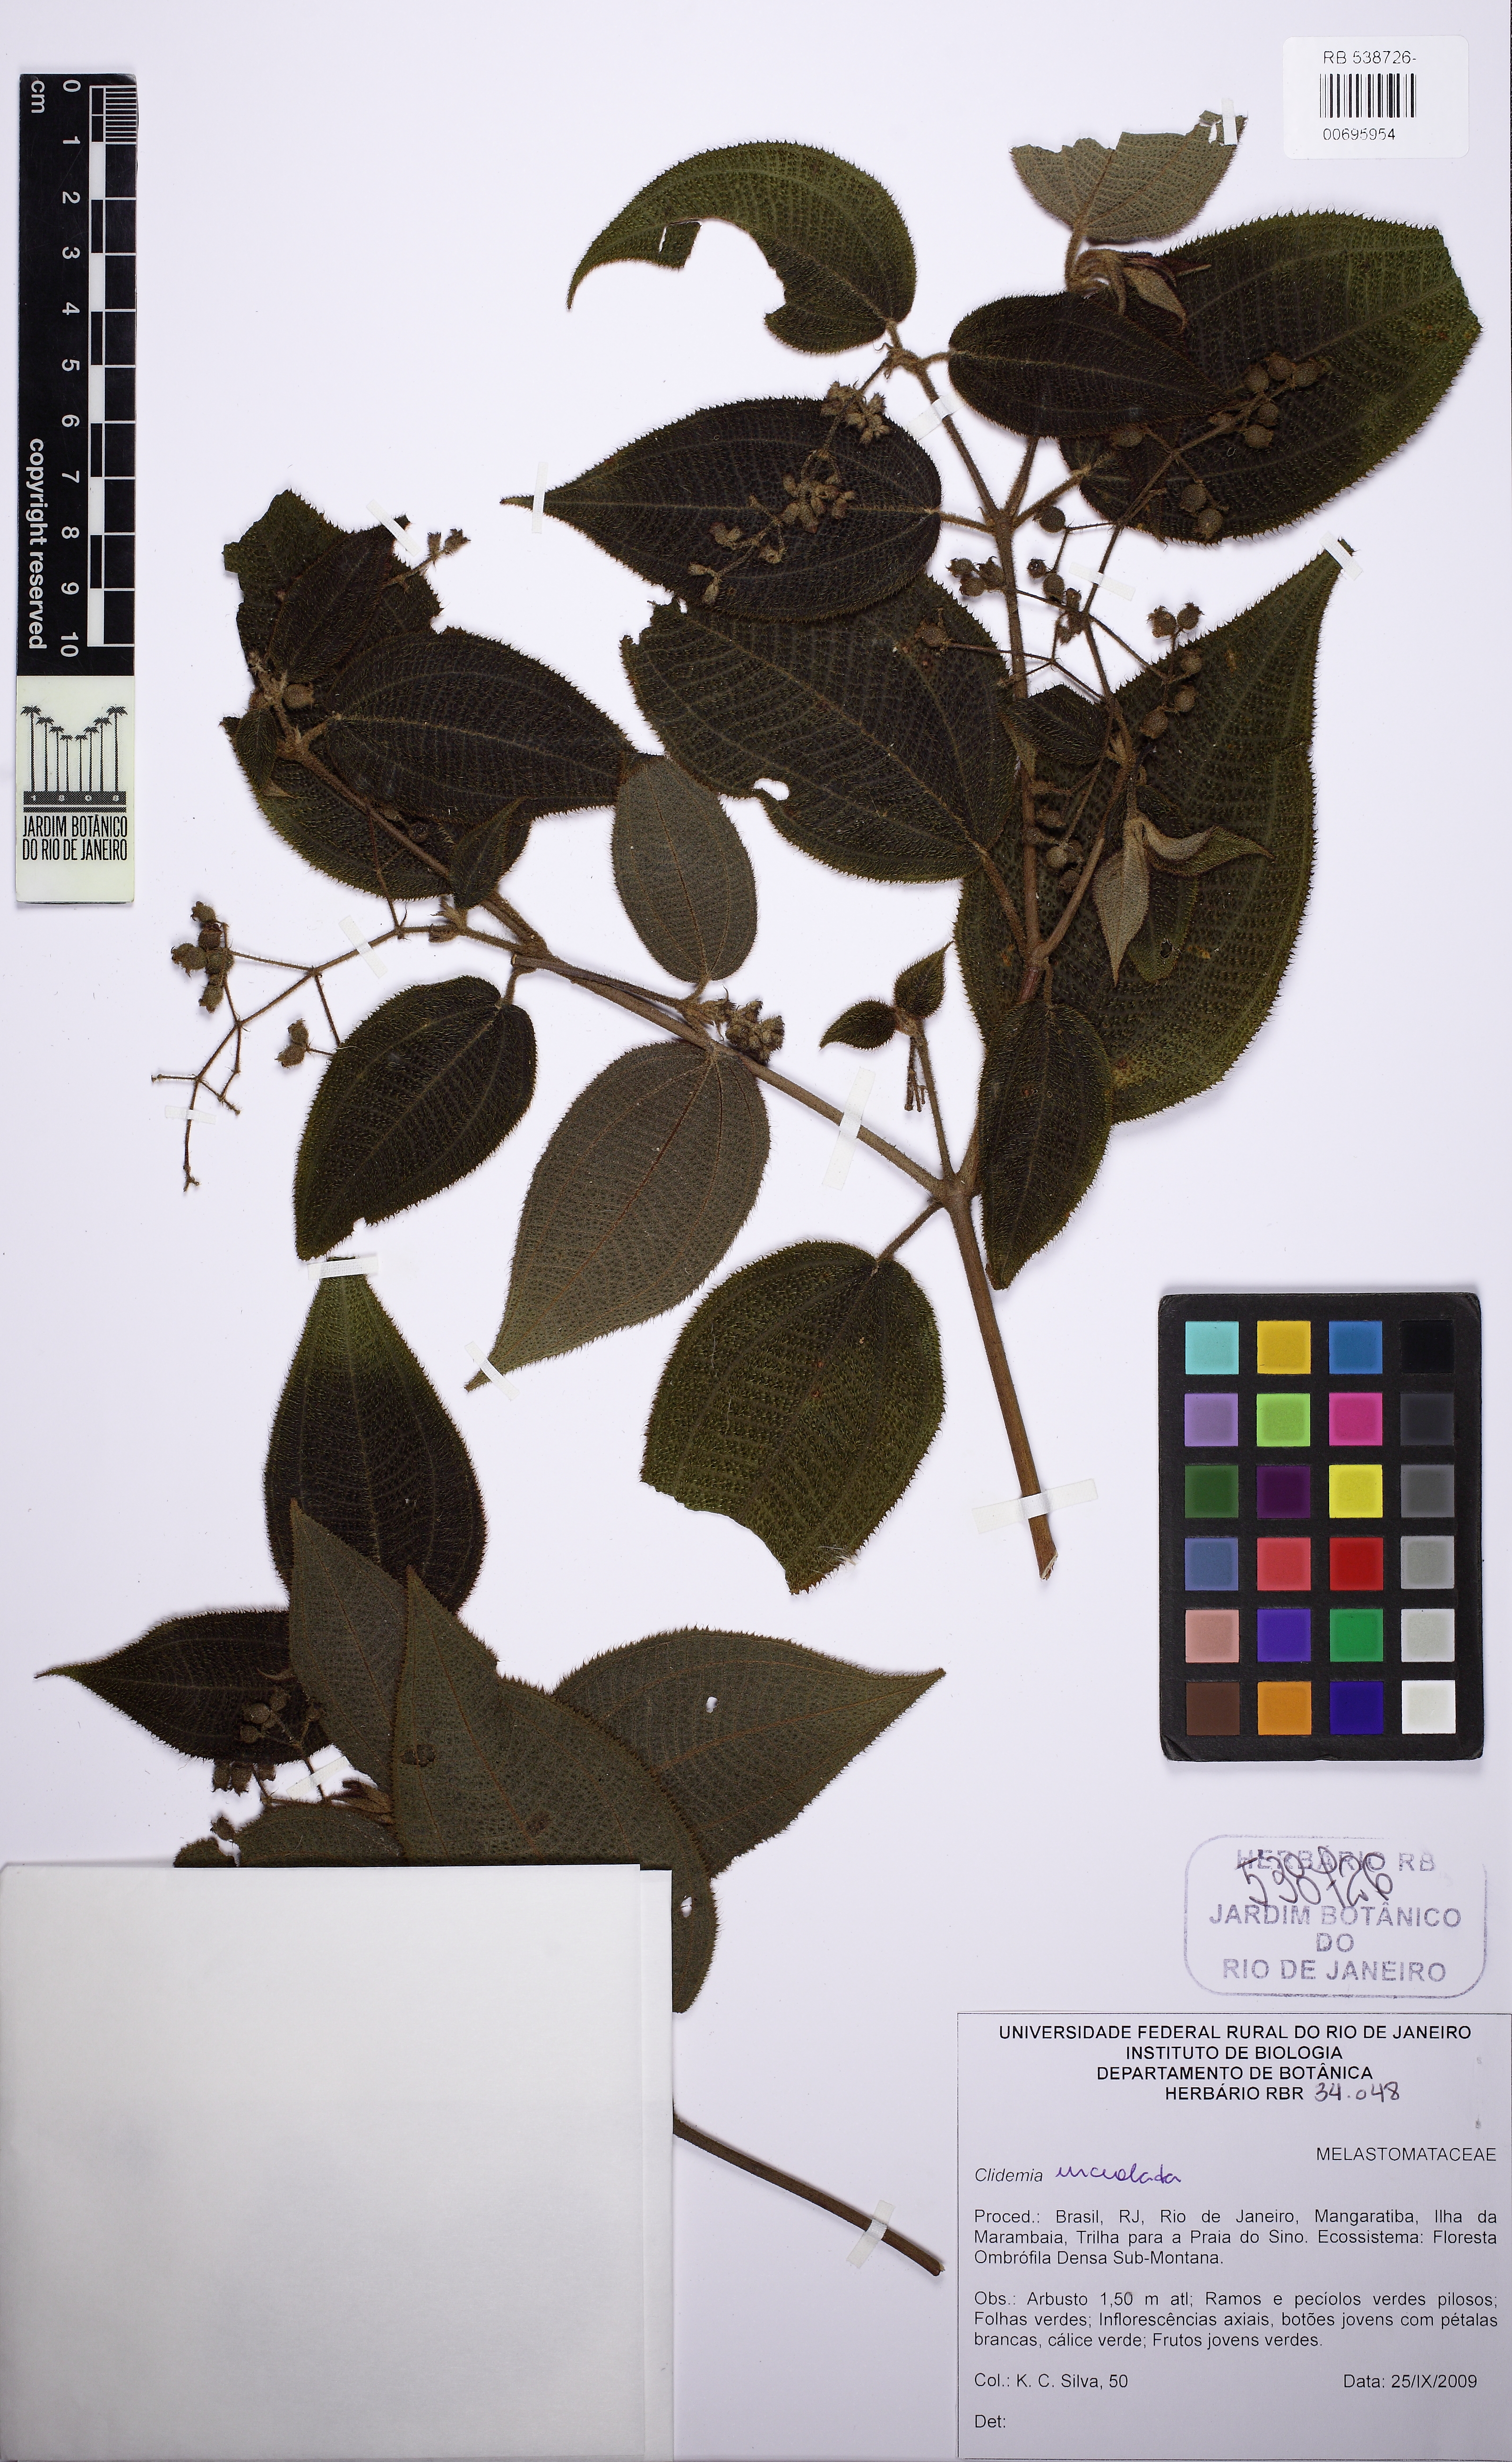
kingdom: Plantae
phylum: Tracheophyta
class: Magnoliopsida
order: Myrtales
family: Melastomataceae
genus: Miconia
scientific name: Miconia biserrata
